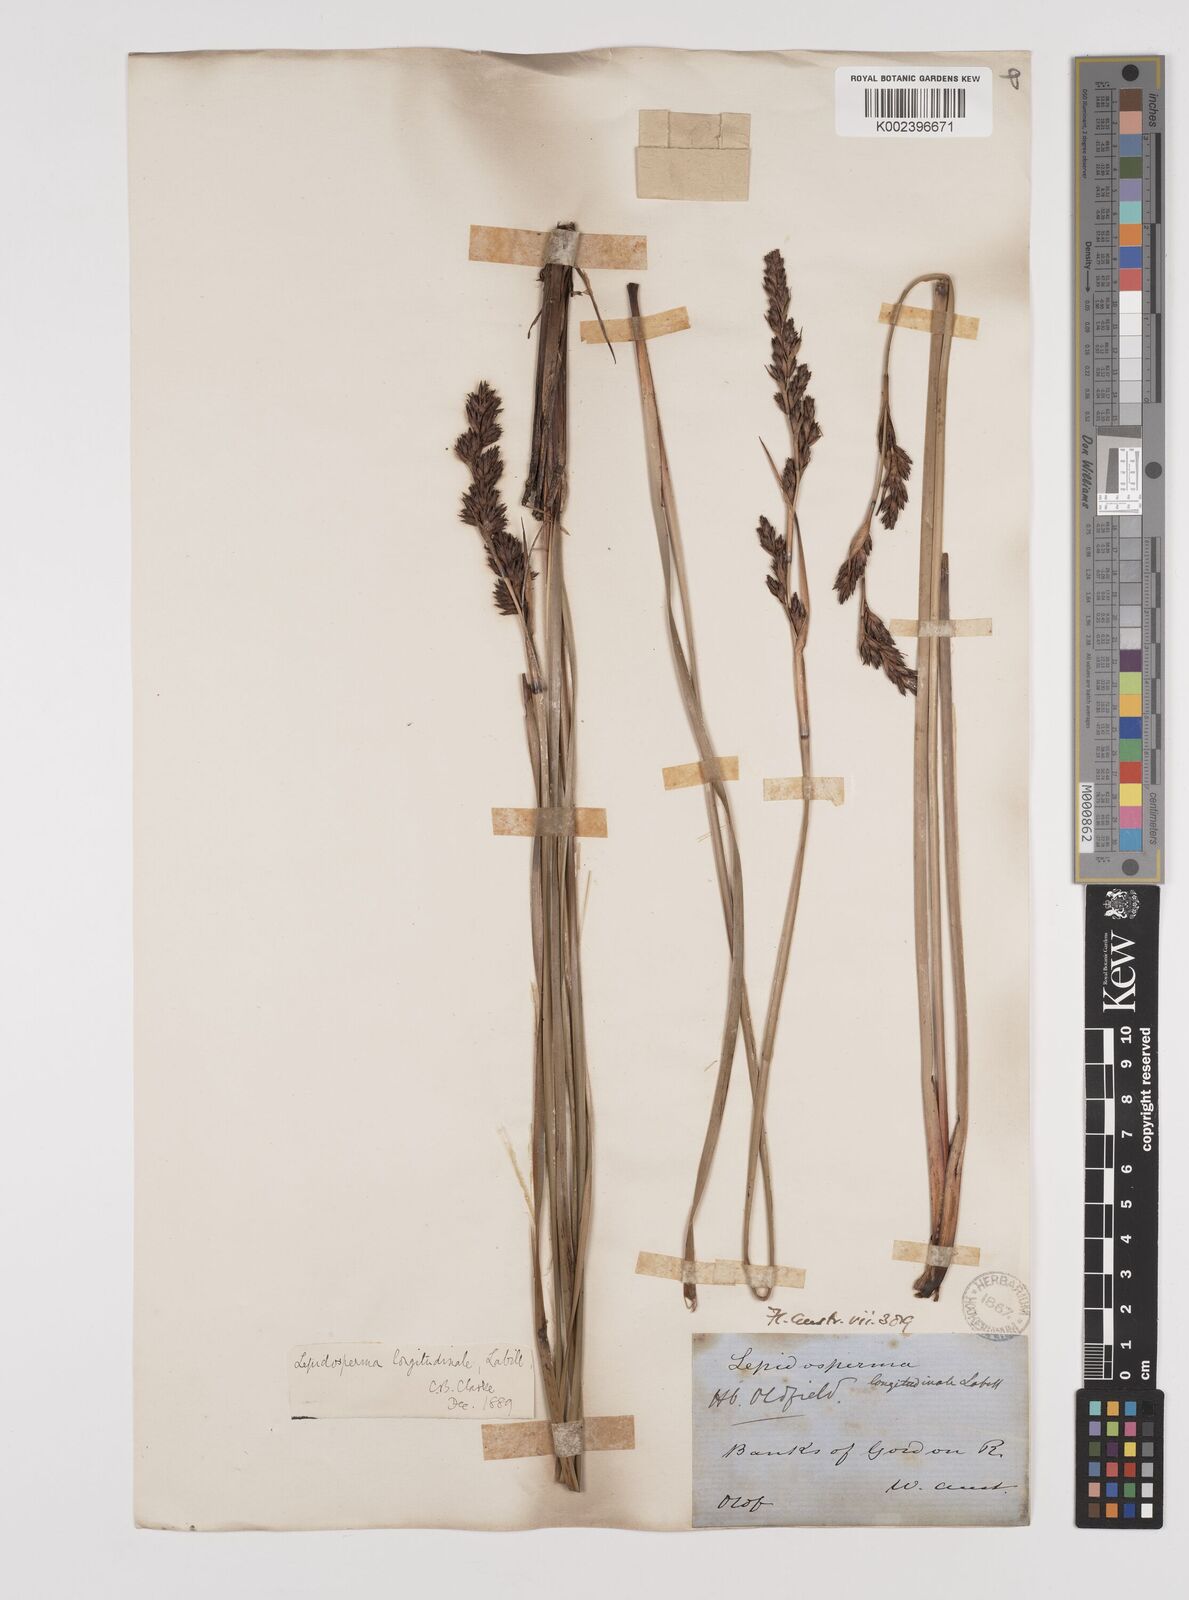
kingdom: Plantae
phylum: Tracheophyta
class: Liliopsida
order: Poales
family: Cyperaceae
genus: Lepidosperma
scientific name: Lepidosperma longitudinale
